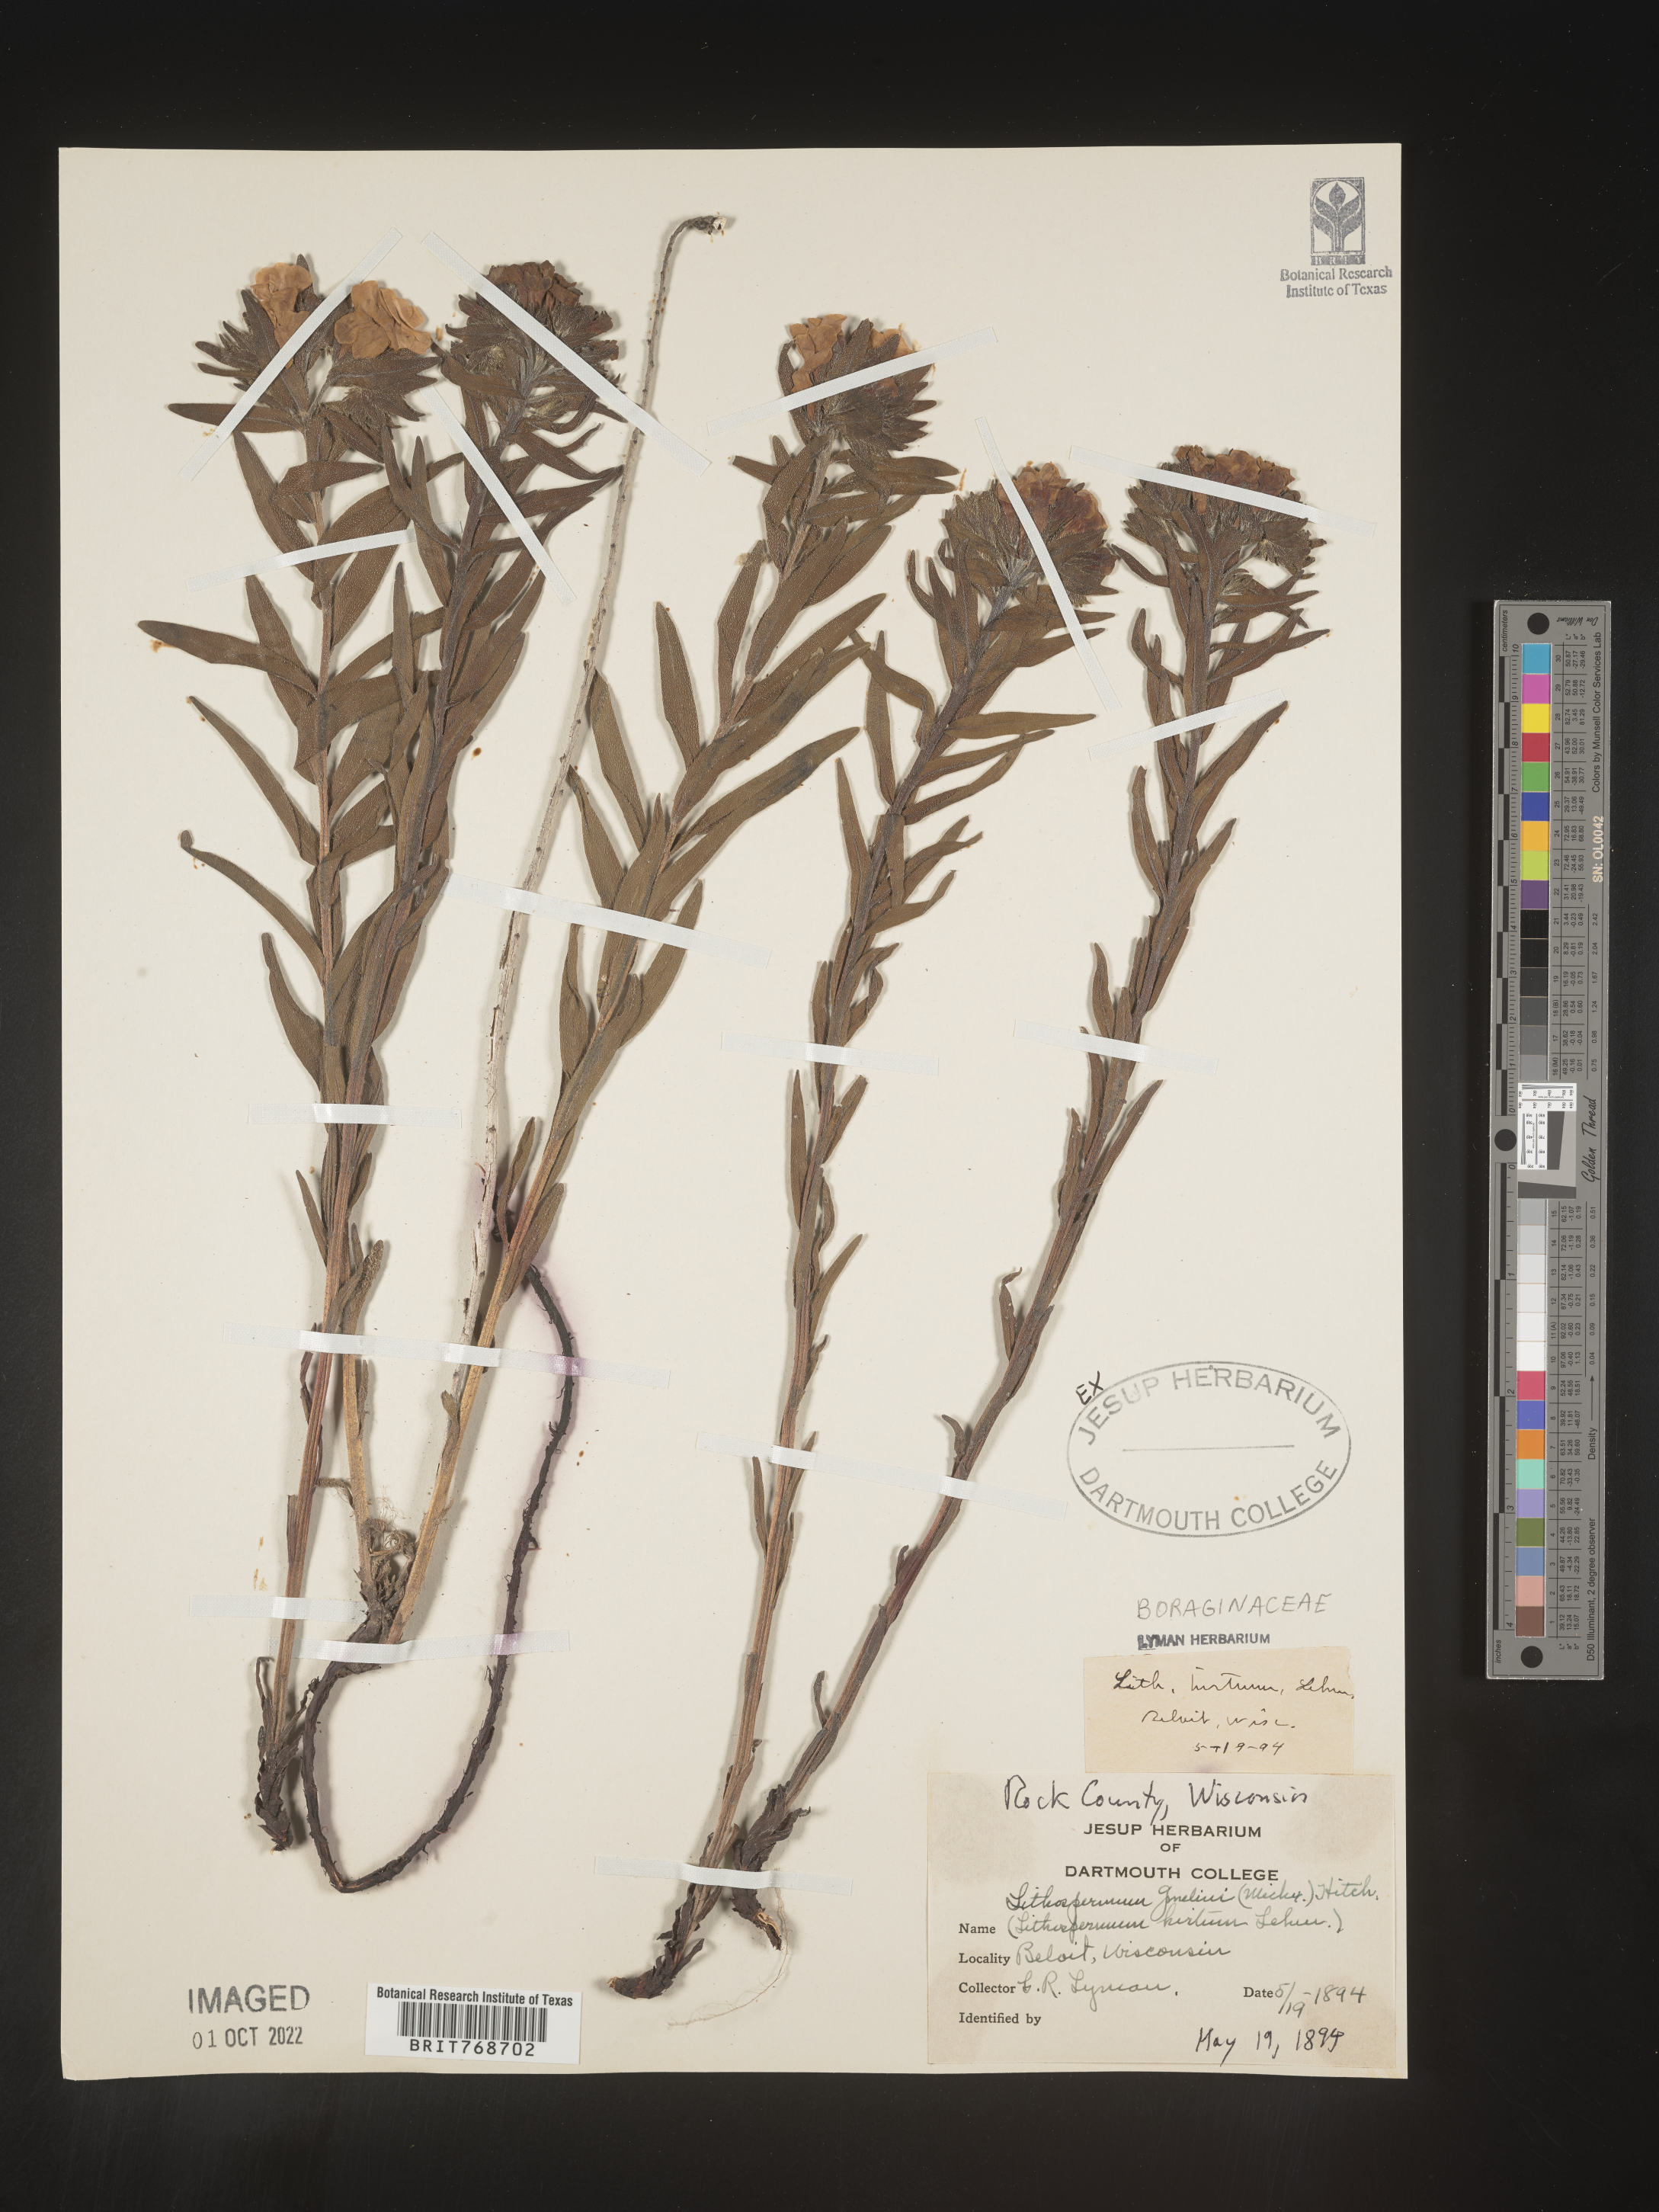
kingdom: Plantae
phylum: Tracheophyta
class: Magnoliopsida
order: Boraginales
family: Boraginaceae
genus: Lithospermum
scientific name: Lithospermum caroliniense
